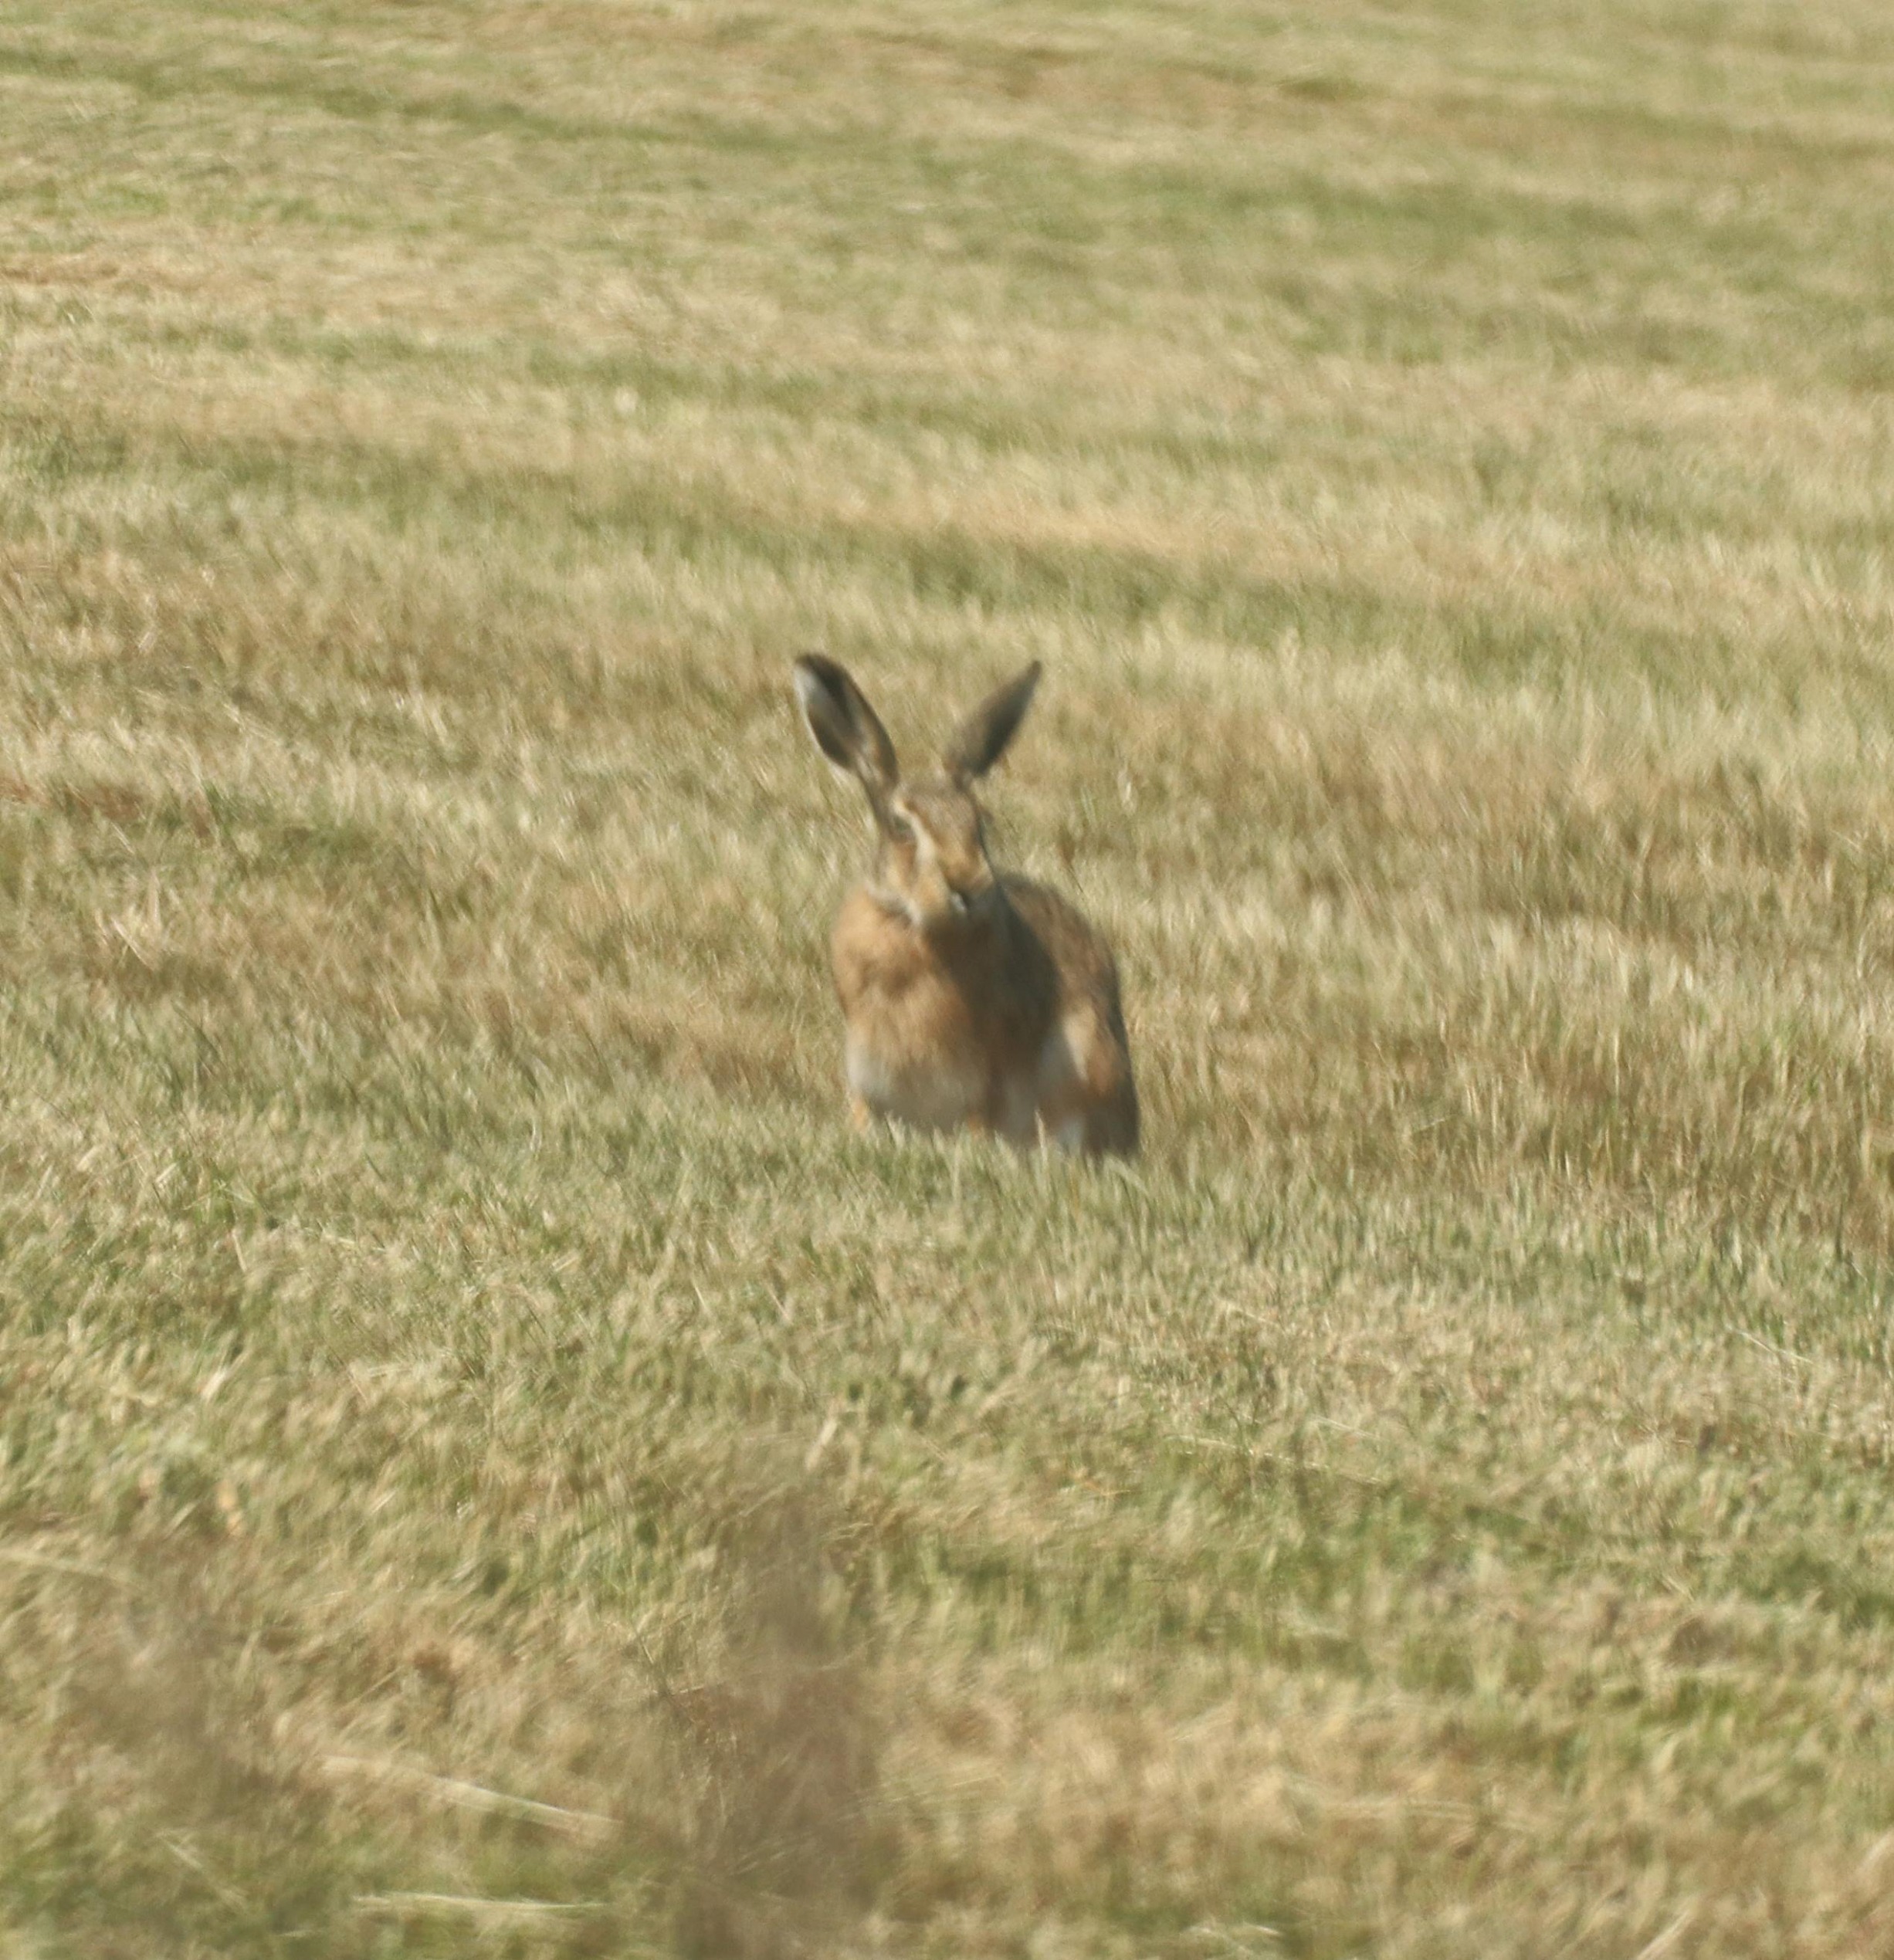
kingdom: Animalia
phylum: Chordata
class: Mammalia
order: Lagomorpha
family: Leporidae
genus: Lepus
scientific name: Lepus europaeus
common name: Hare
